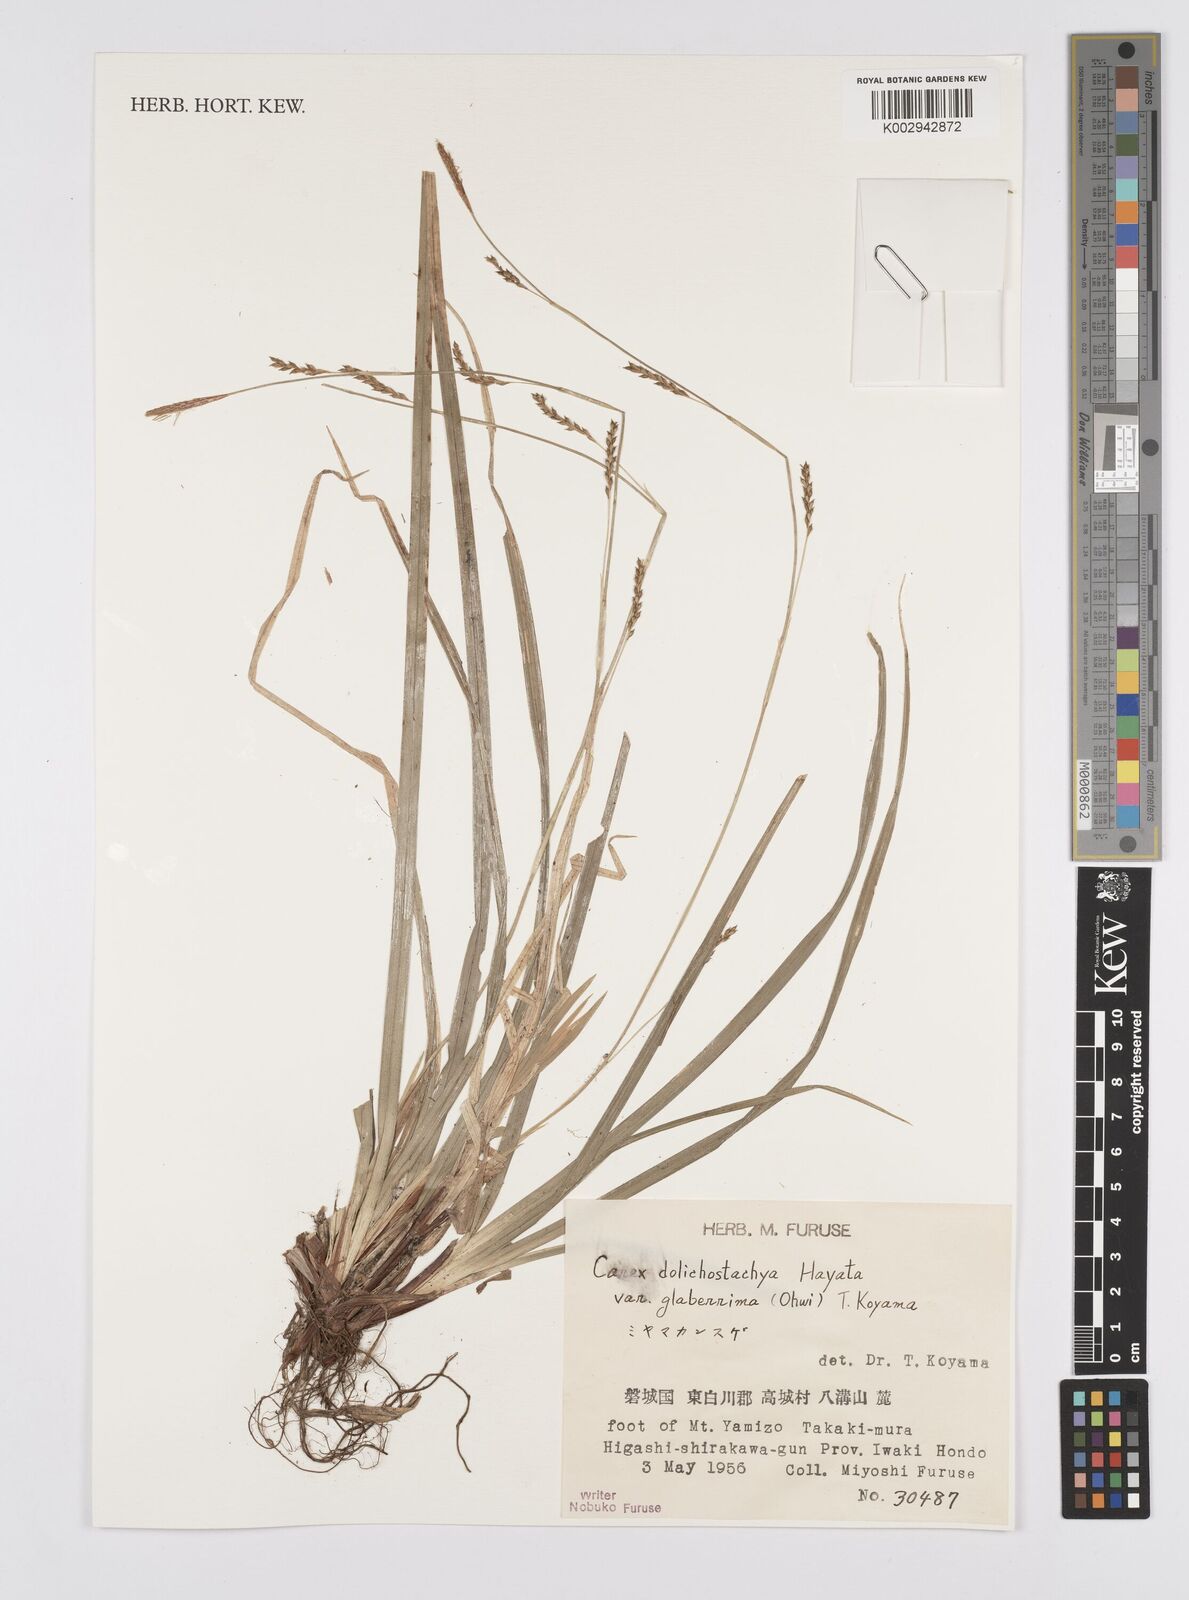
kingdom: Plantae
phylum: Tracheophyta
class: Liliopsida
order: Poales
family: Cyperaceae
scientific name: Cyperaceae
